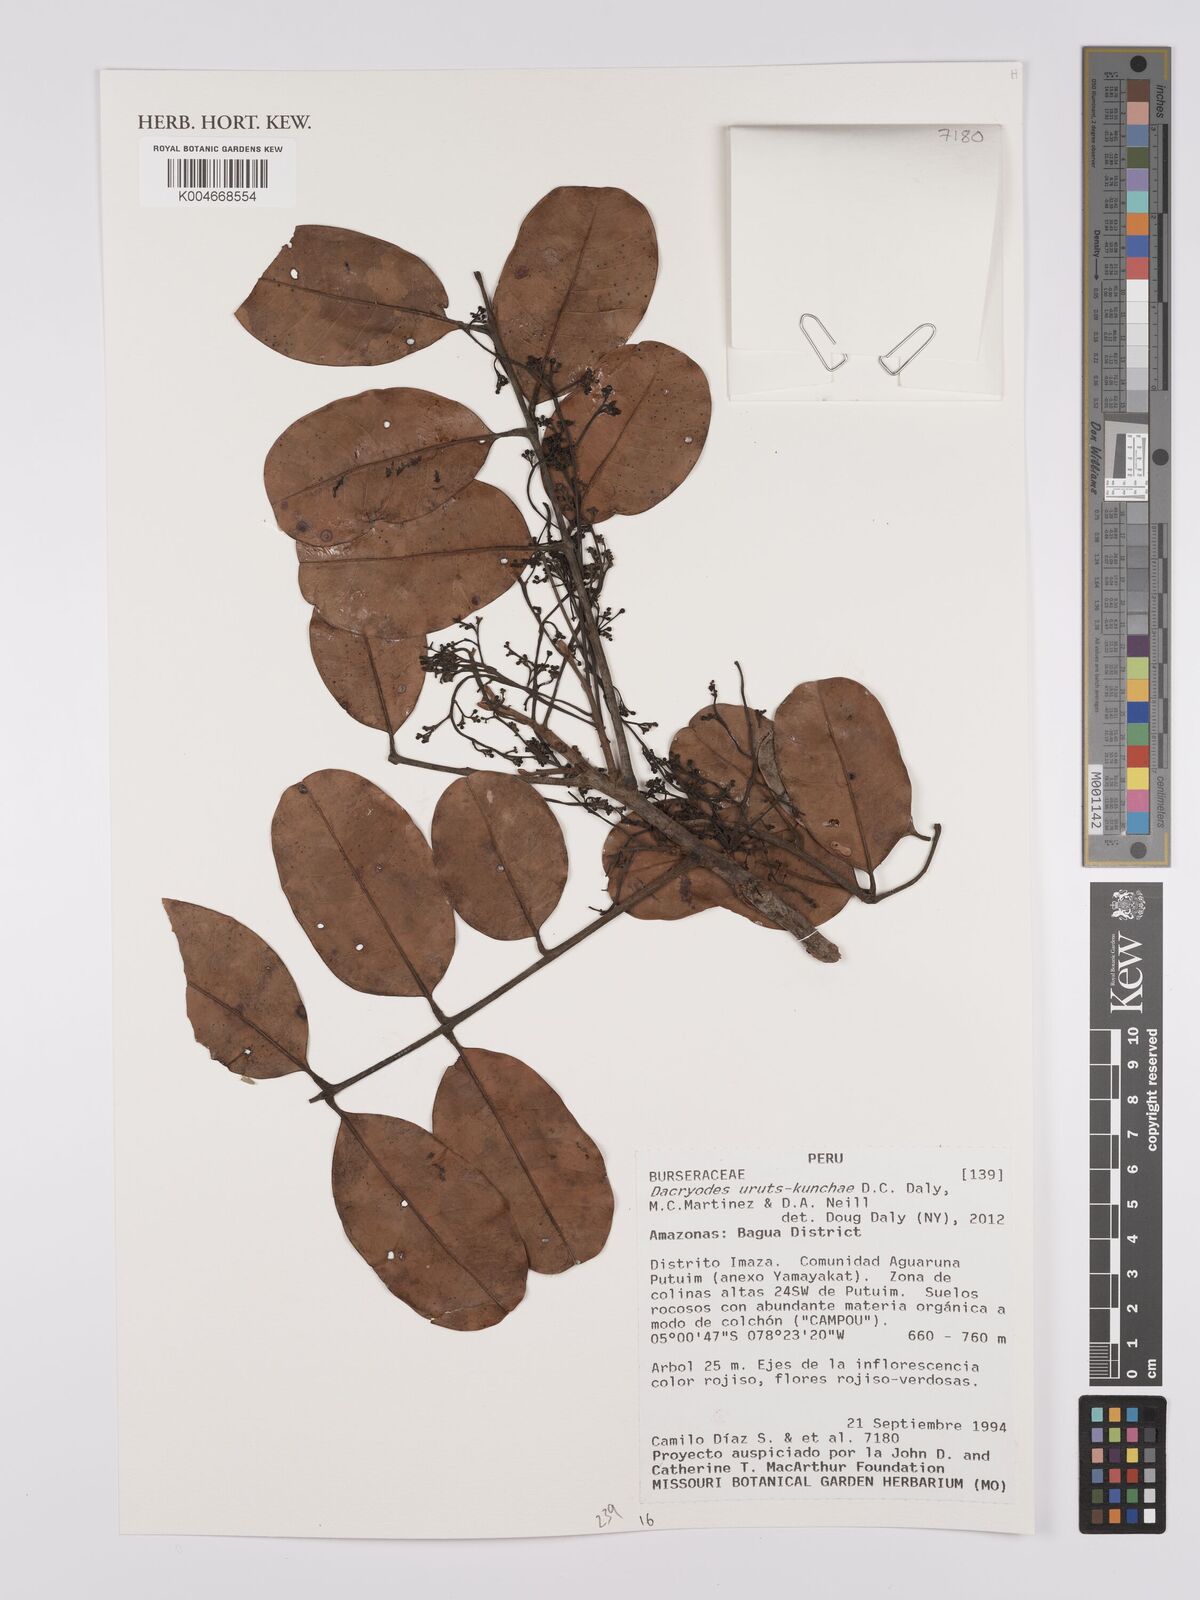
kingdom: Plantae
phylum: Tracheophyta
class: Magnoliopsida
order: Sapindales
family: Burseraceae
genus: Dacryodes
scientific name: Dacryodes uruts-kunchae
